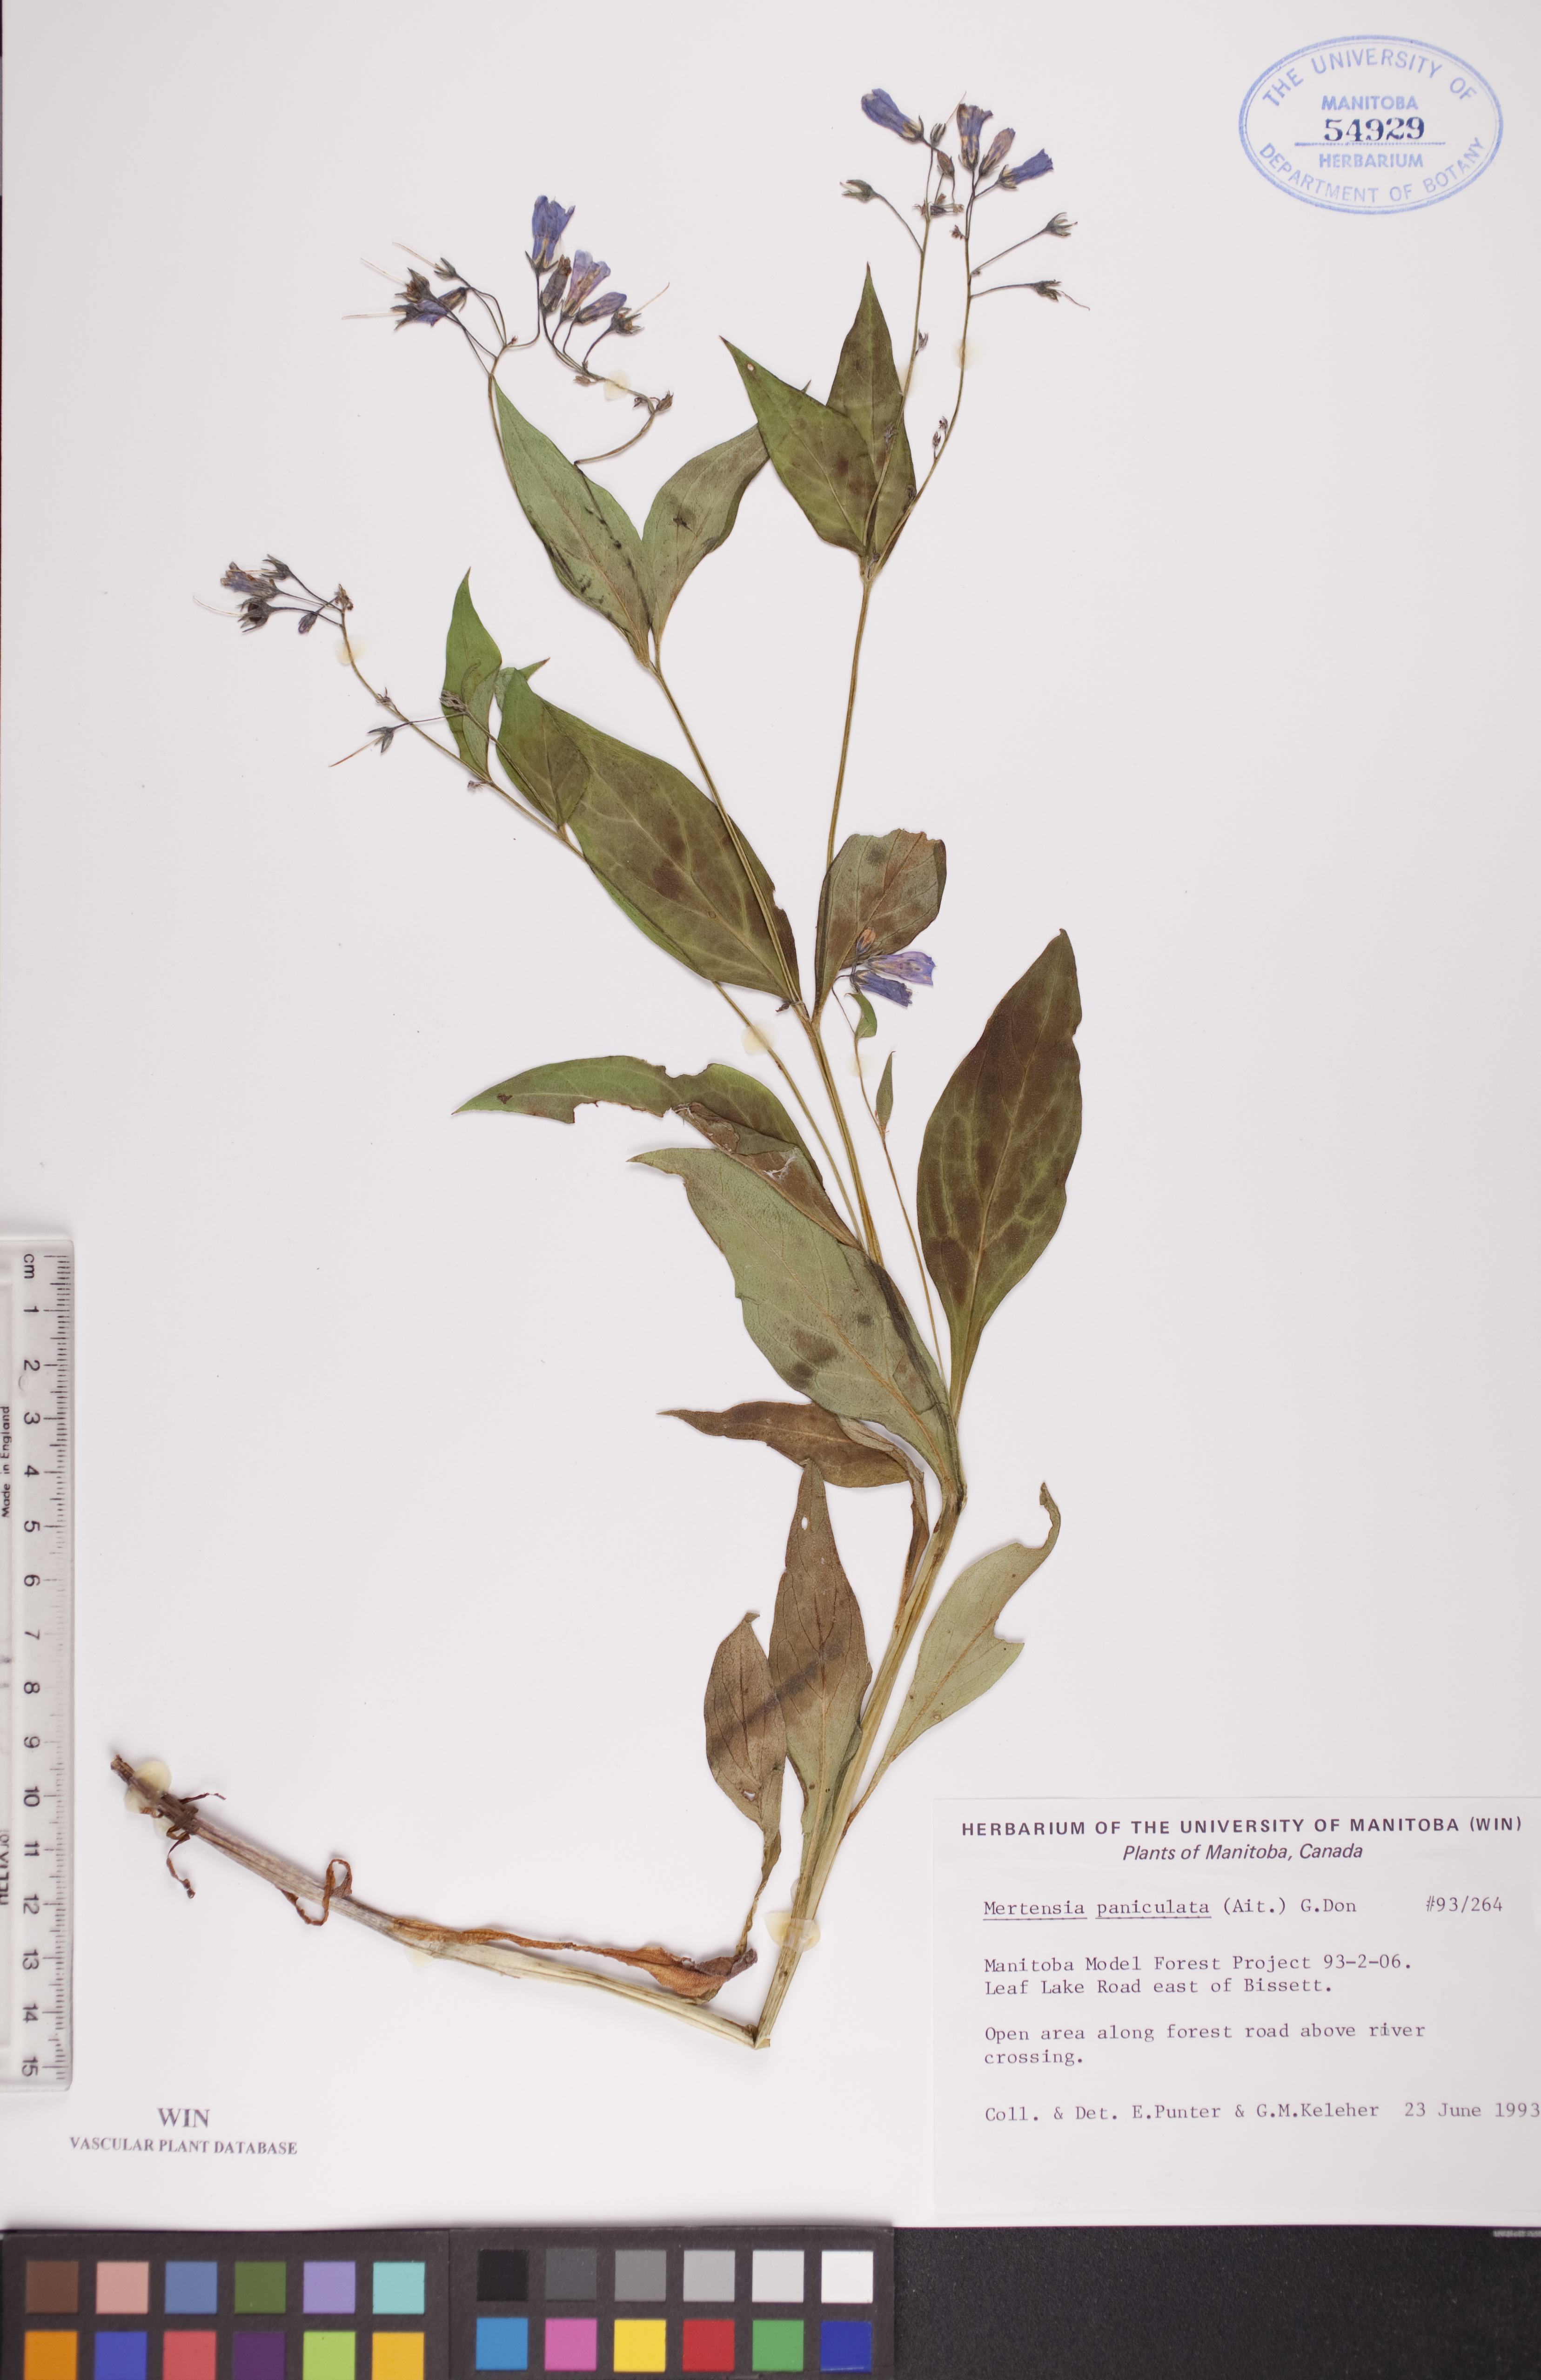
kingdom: Plantae
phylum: Tracheophyta
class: Magnoliopsida
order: Boraginales
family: Boraginaceae
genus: Mertensia
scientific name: Mertensia paniculata
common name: Panicled bluebells
